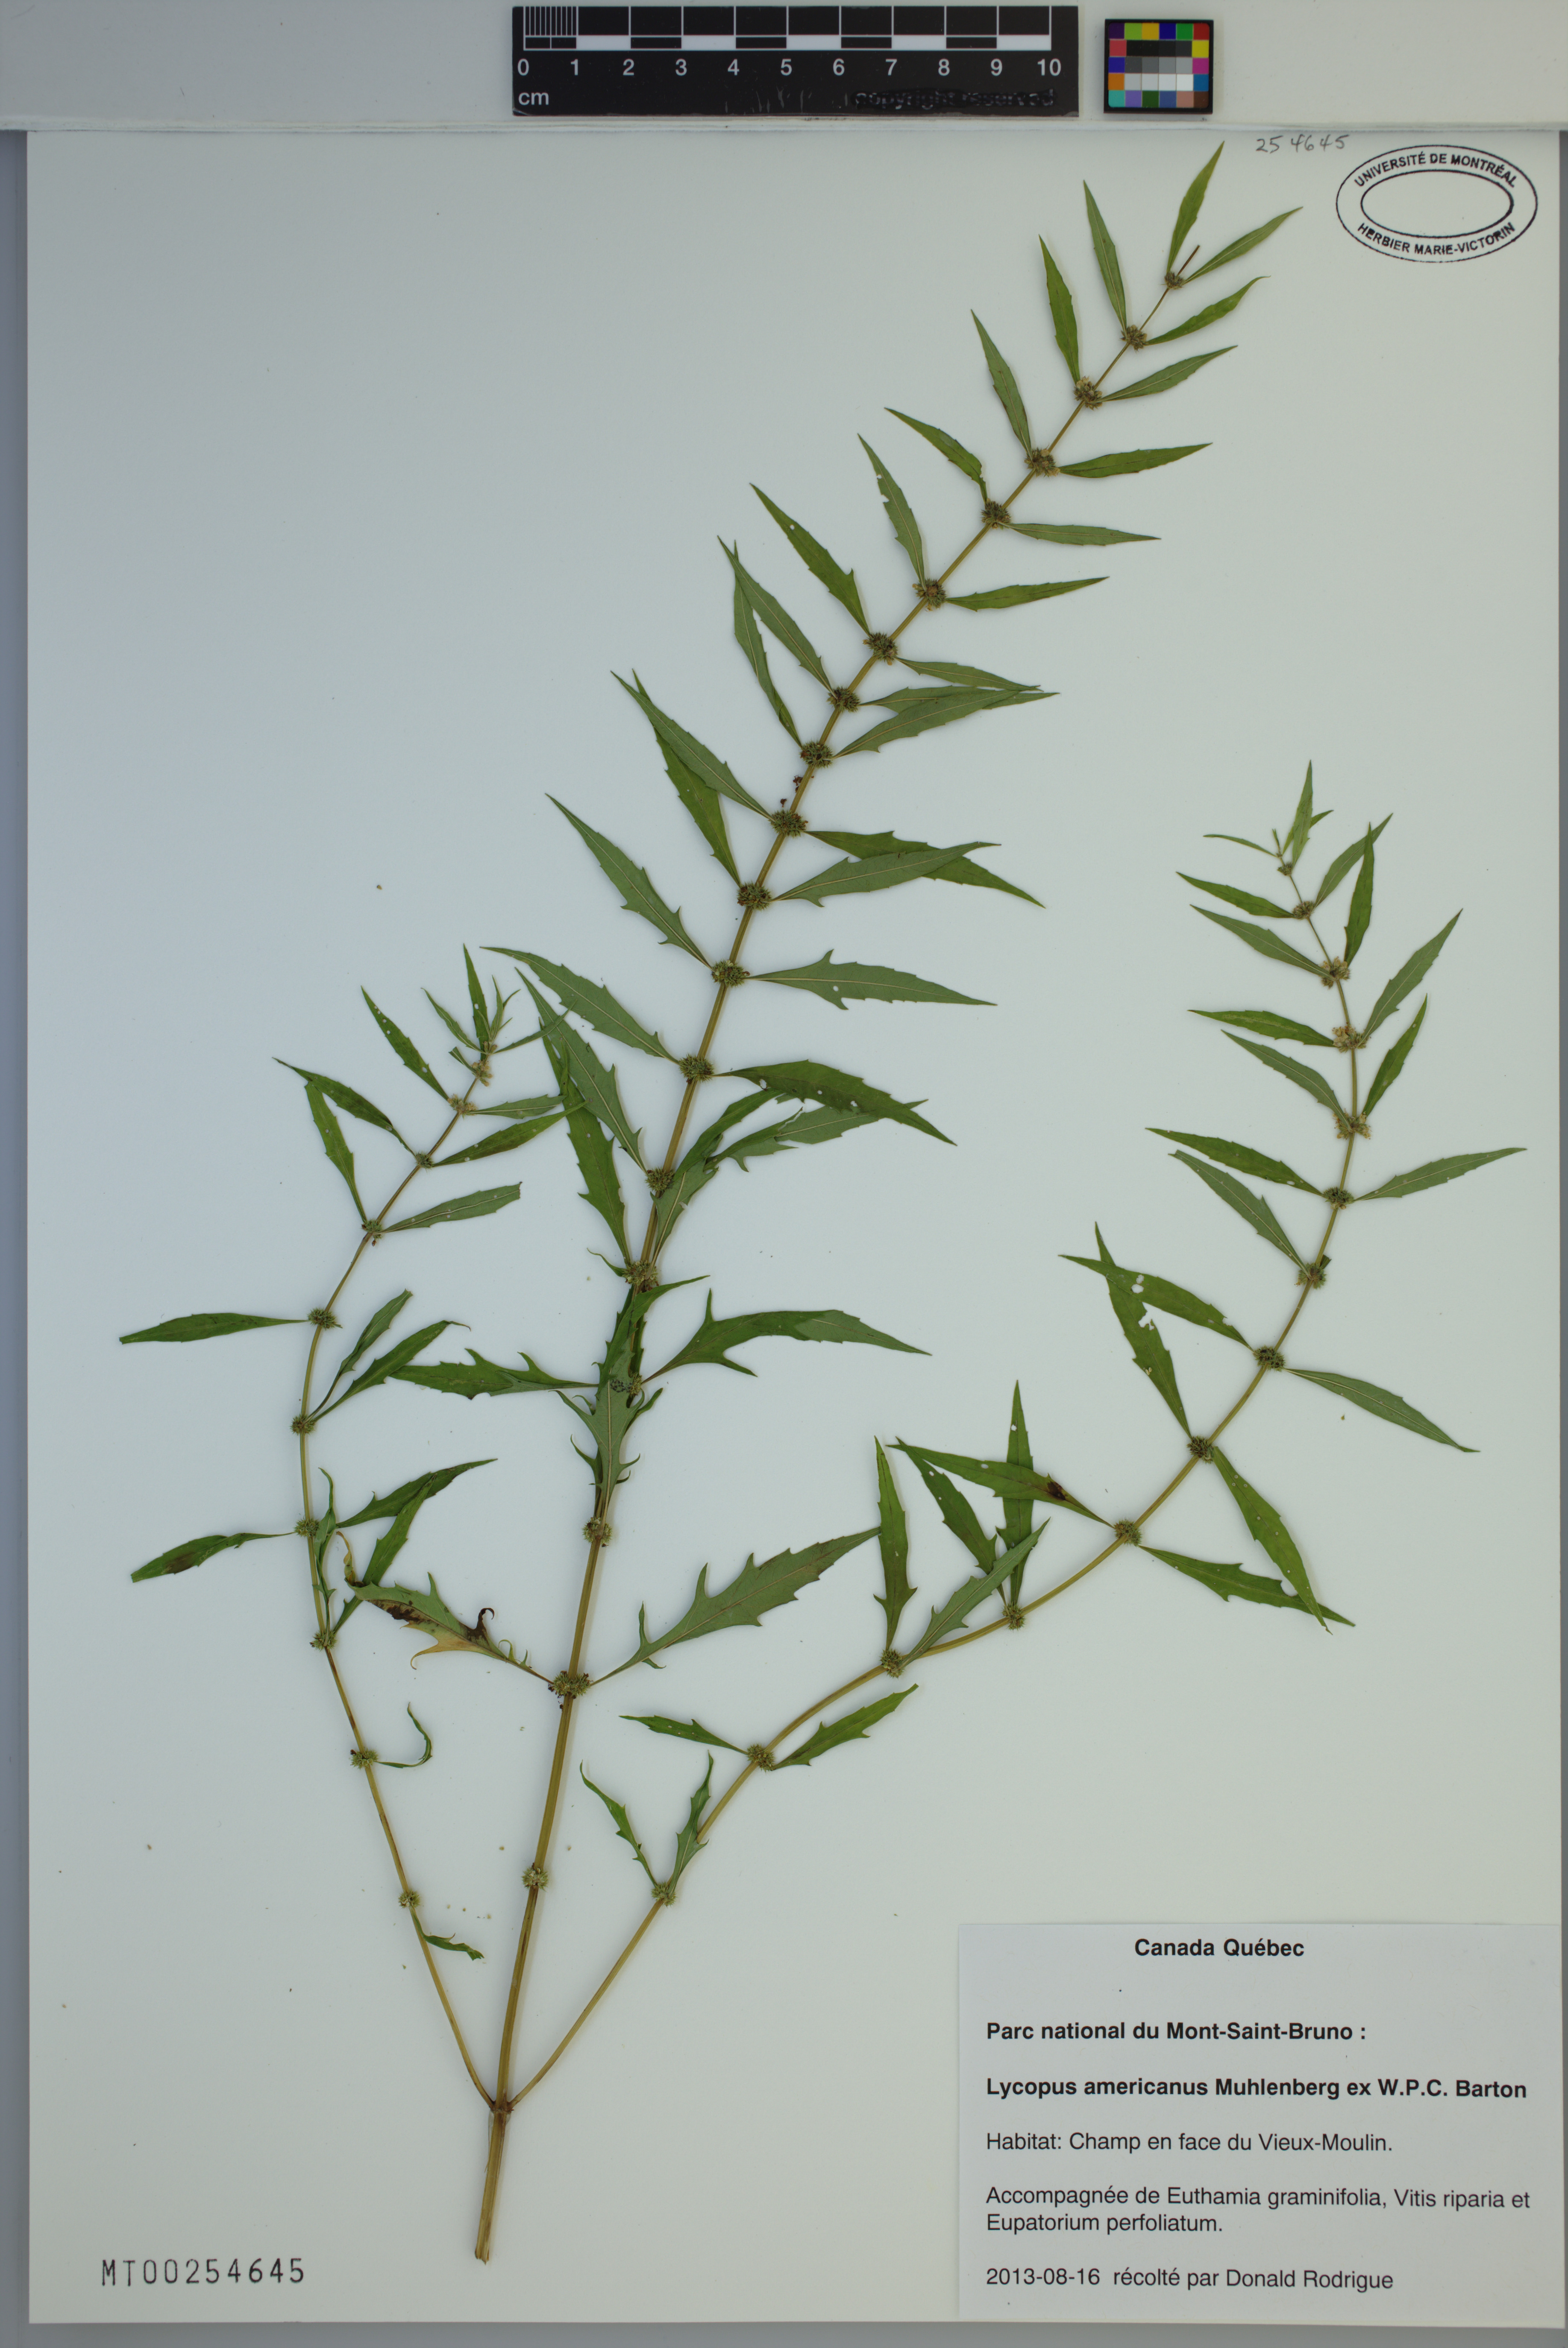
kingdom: Plantae
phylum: Tracheophyta
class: Magnoliopsida
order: Lamiales
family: Lamiaceae
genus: Lycopus
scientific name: Lycopus americanus
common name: American bugleweed
